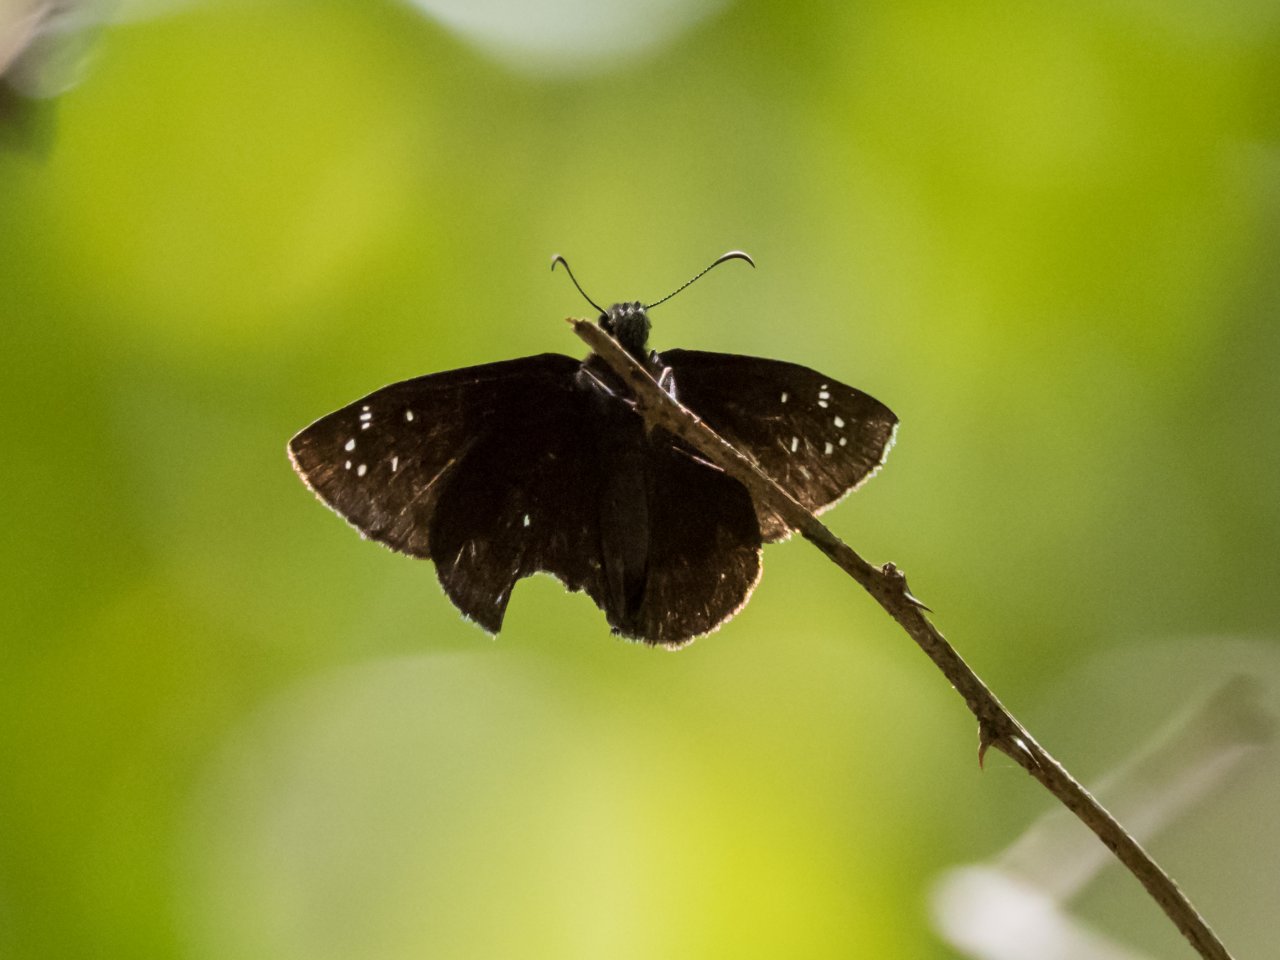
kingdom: Animalia
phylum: Arthropoda
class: Insecta
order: Lepidoptera
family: Hesperiidae
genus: Ephyriades
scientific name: Ephyriades brunnea
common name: Florida Duskywing
